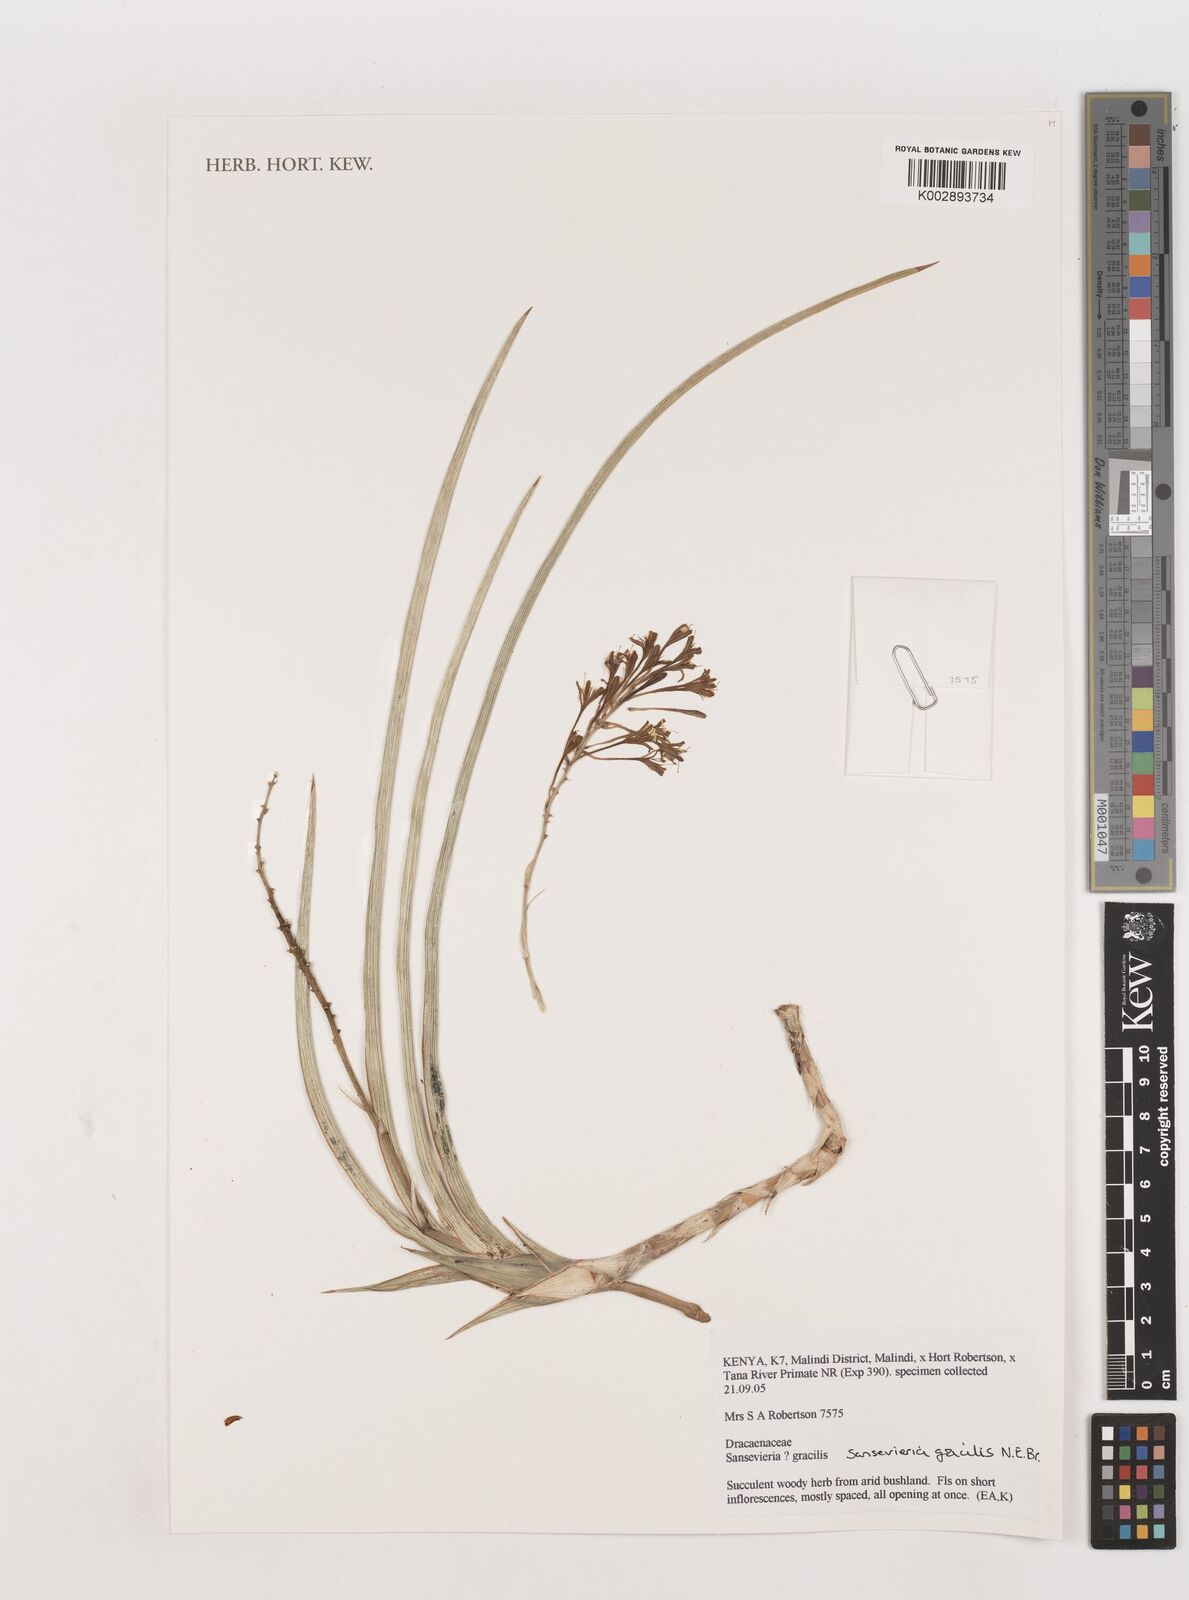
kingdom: Plantae
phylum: Tracheophyta
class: Liliopsida
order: Asparagales
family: Asparagaceae
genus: Dracaena
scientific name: Dracaena serpenta
